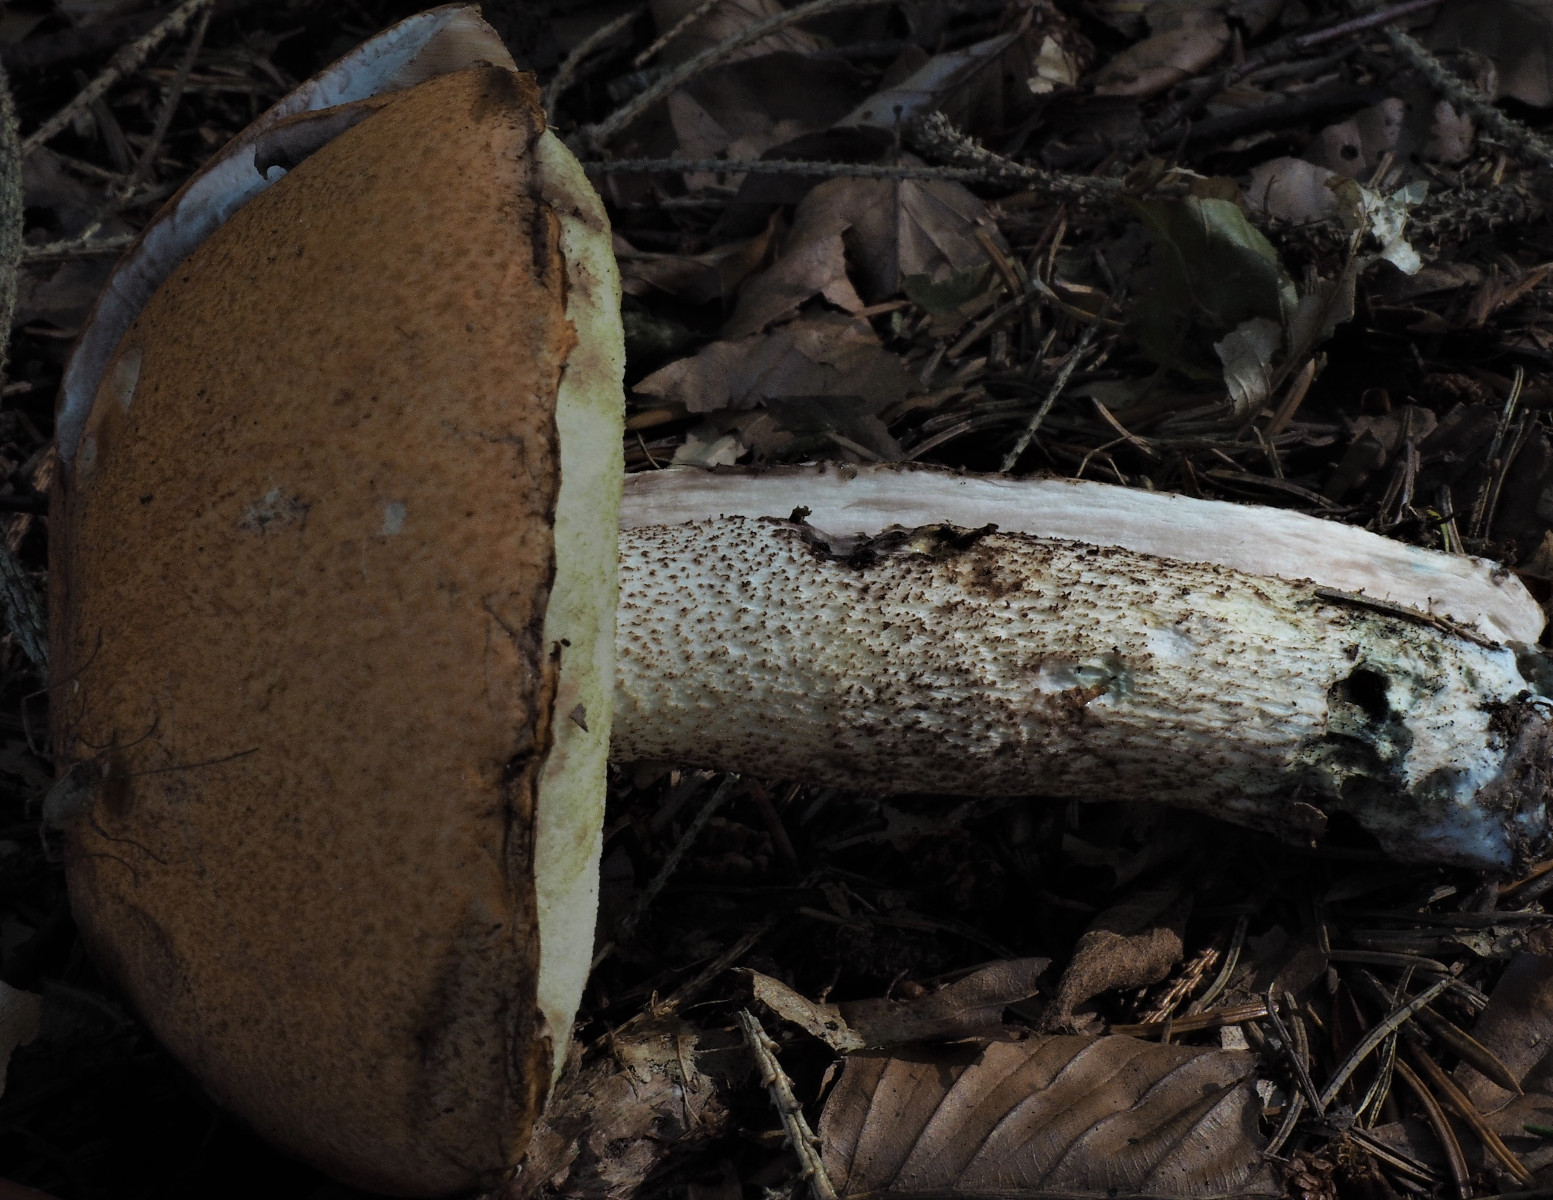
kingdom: Fungi
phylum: Basidiomycota
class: Agaricomycetes
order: Boletales
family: Boletaceae
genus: Leccinum
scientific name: Leccinum
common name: skælrørhat
